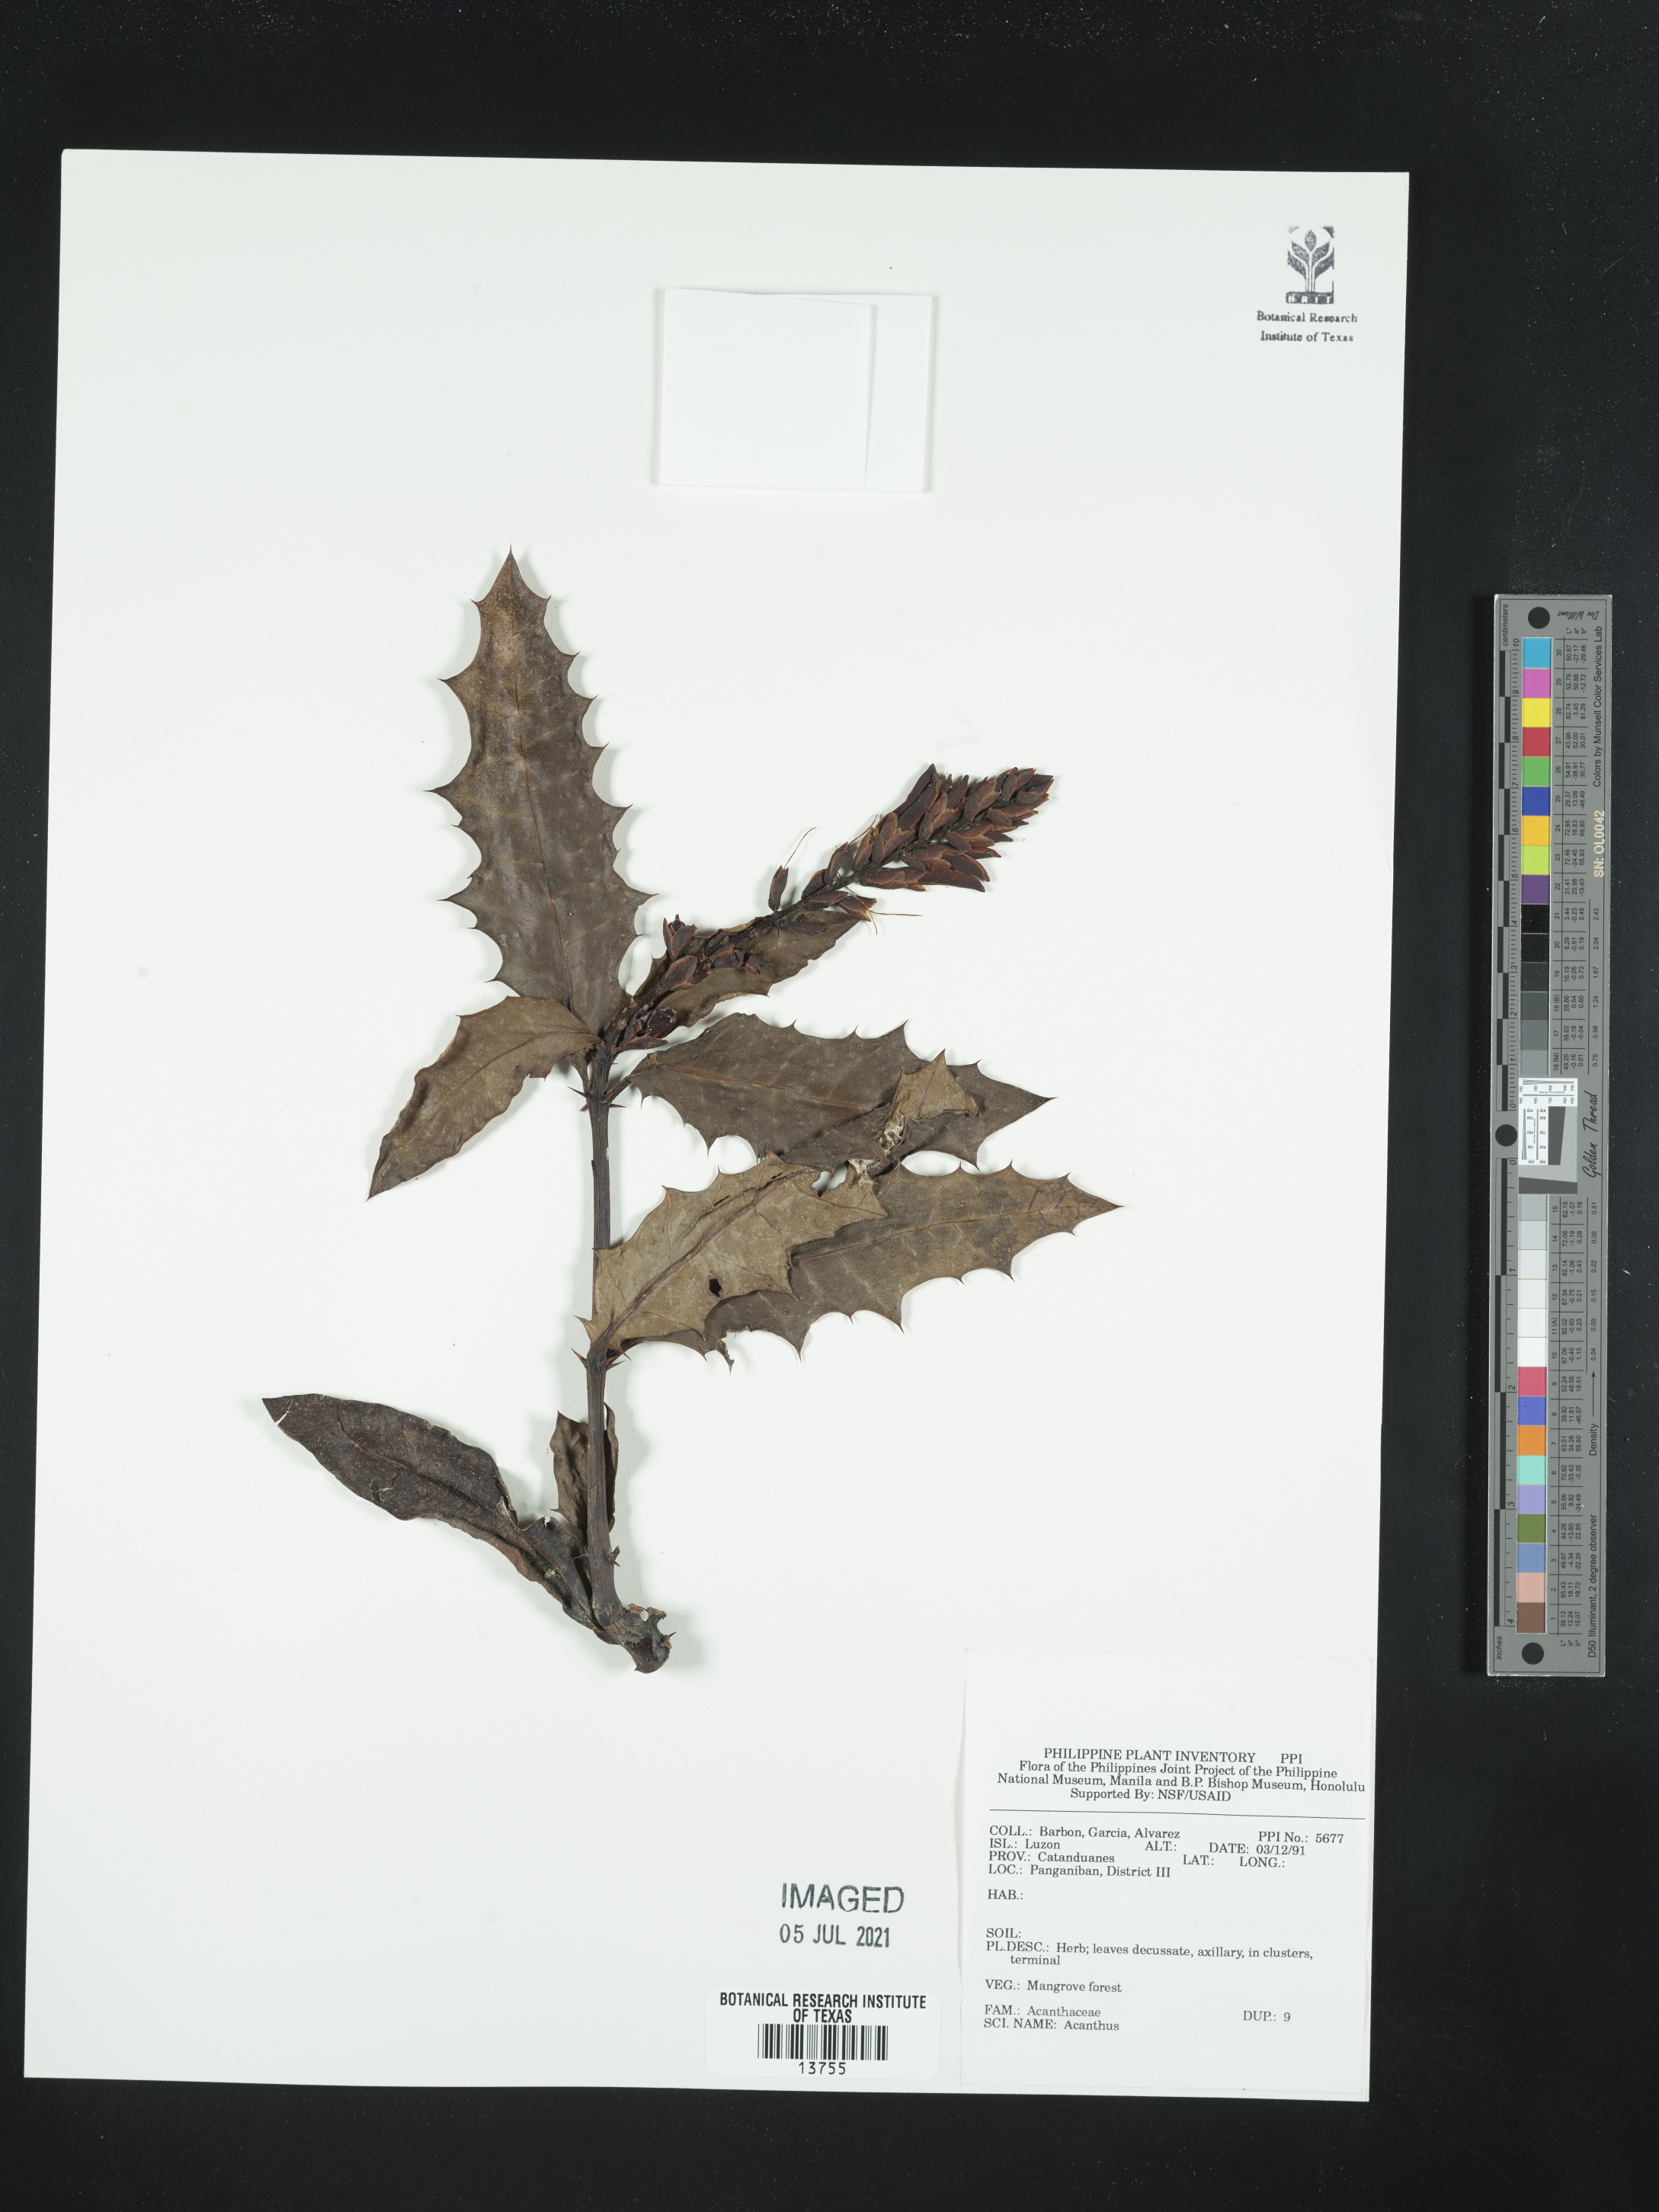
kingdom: Plantae
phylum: Tracheophyta
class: Magnoliopsida
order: Lamiales
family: Acanthaceae
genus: Acanthus
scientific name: Acanthus
